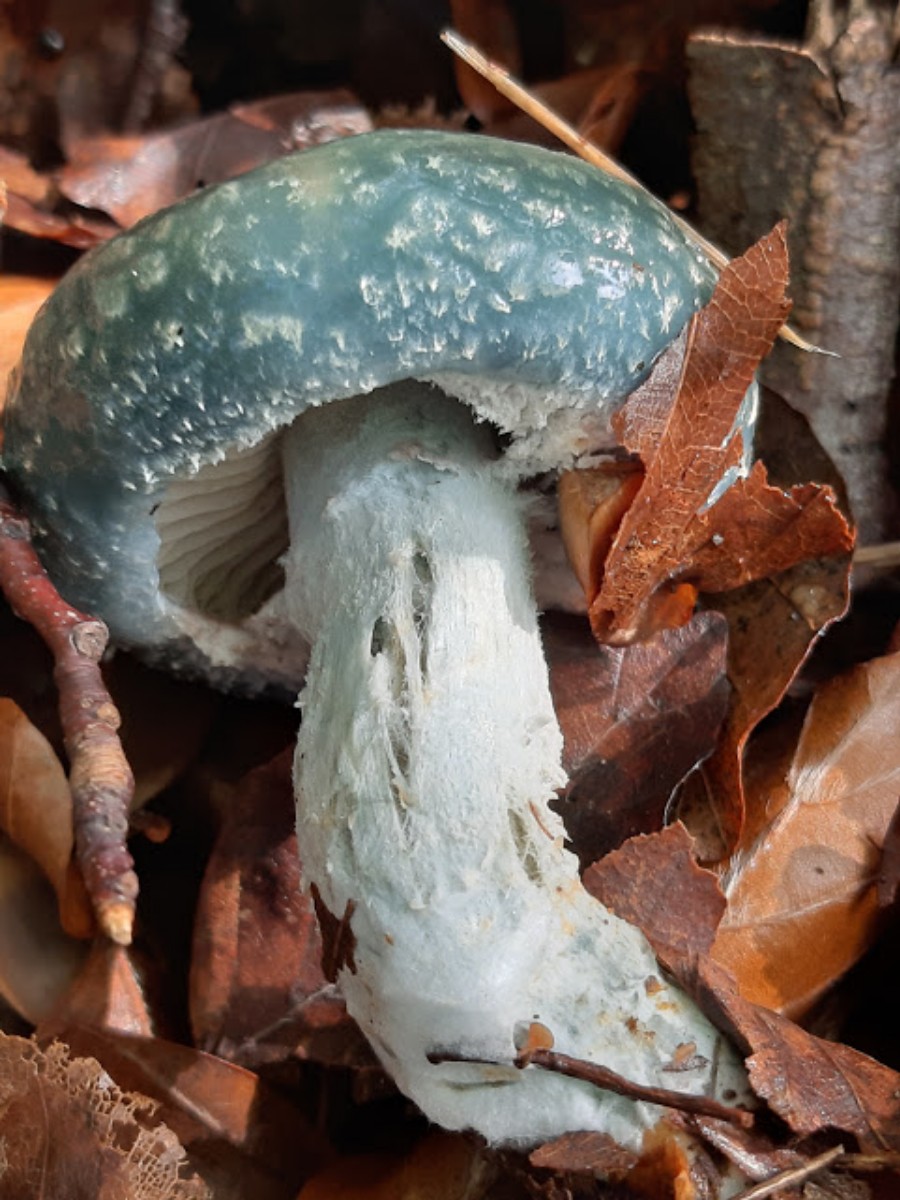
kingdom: Fungi
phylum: Basidiomycota
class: Agaricomycetes
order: Agaricales
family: Strophariaceae
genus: Stropharia
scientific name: Stropharia aeruginosa
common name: spanskgrøn bredblad
